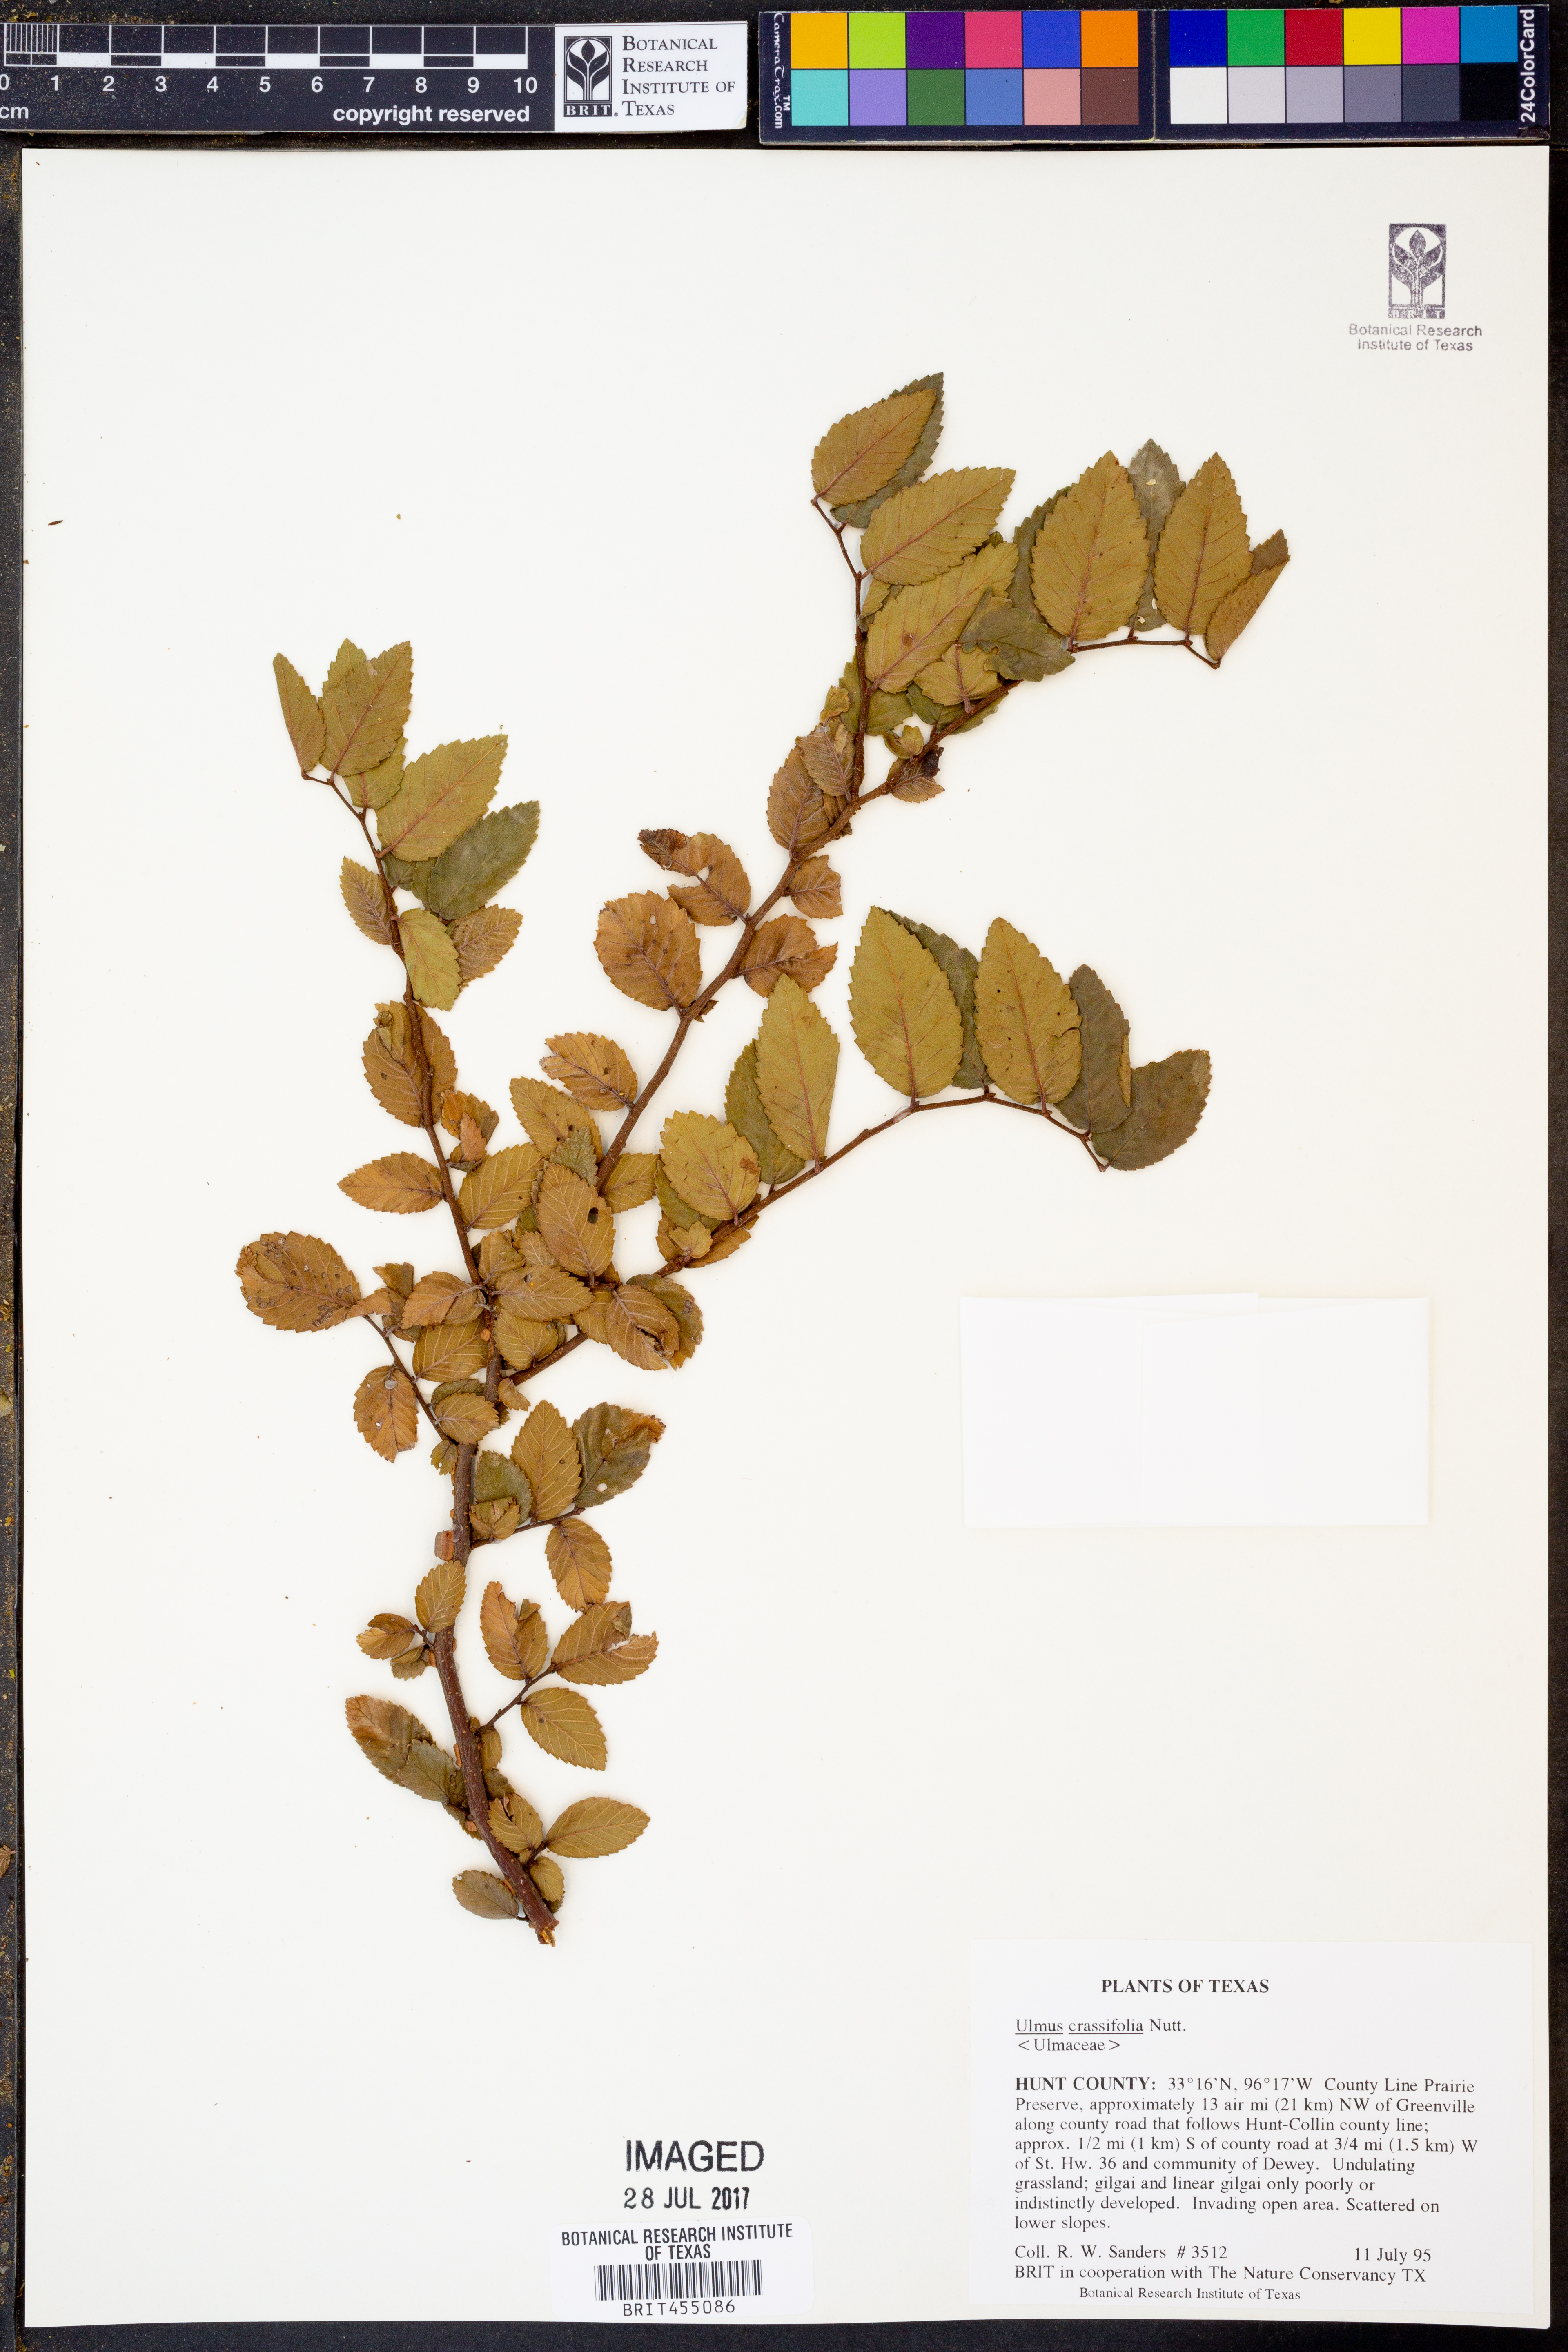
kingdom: Plantae
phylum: Tracheophyta
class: Magnoliopsida
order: Rosales
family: Ulmaceae
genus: Ulmus
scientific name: Ulmus crassifolia
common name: Basket elm
